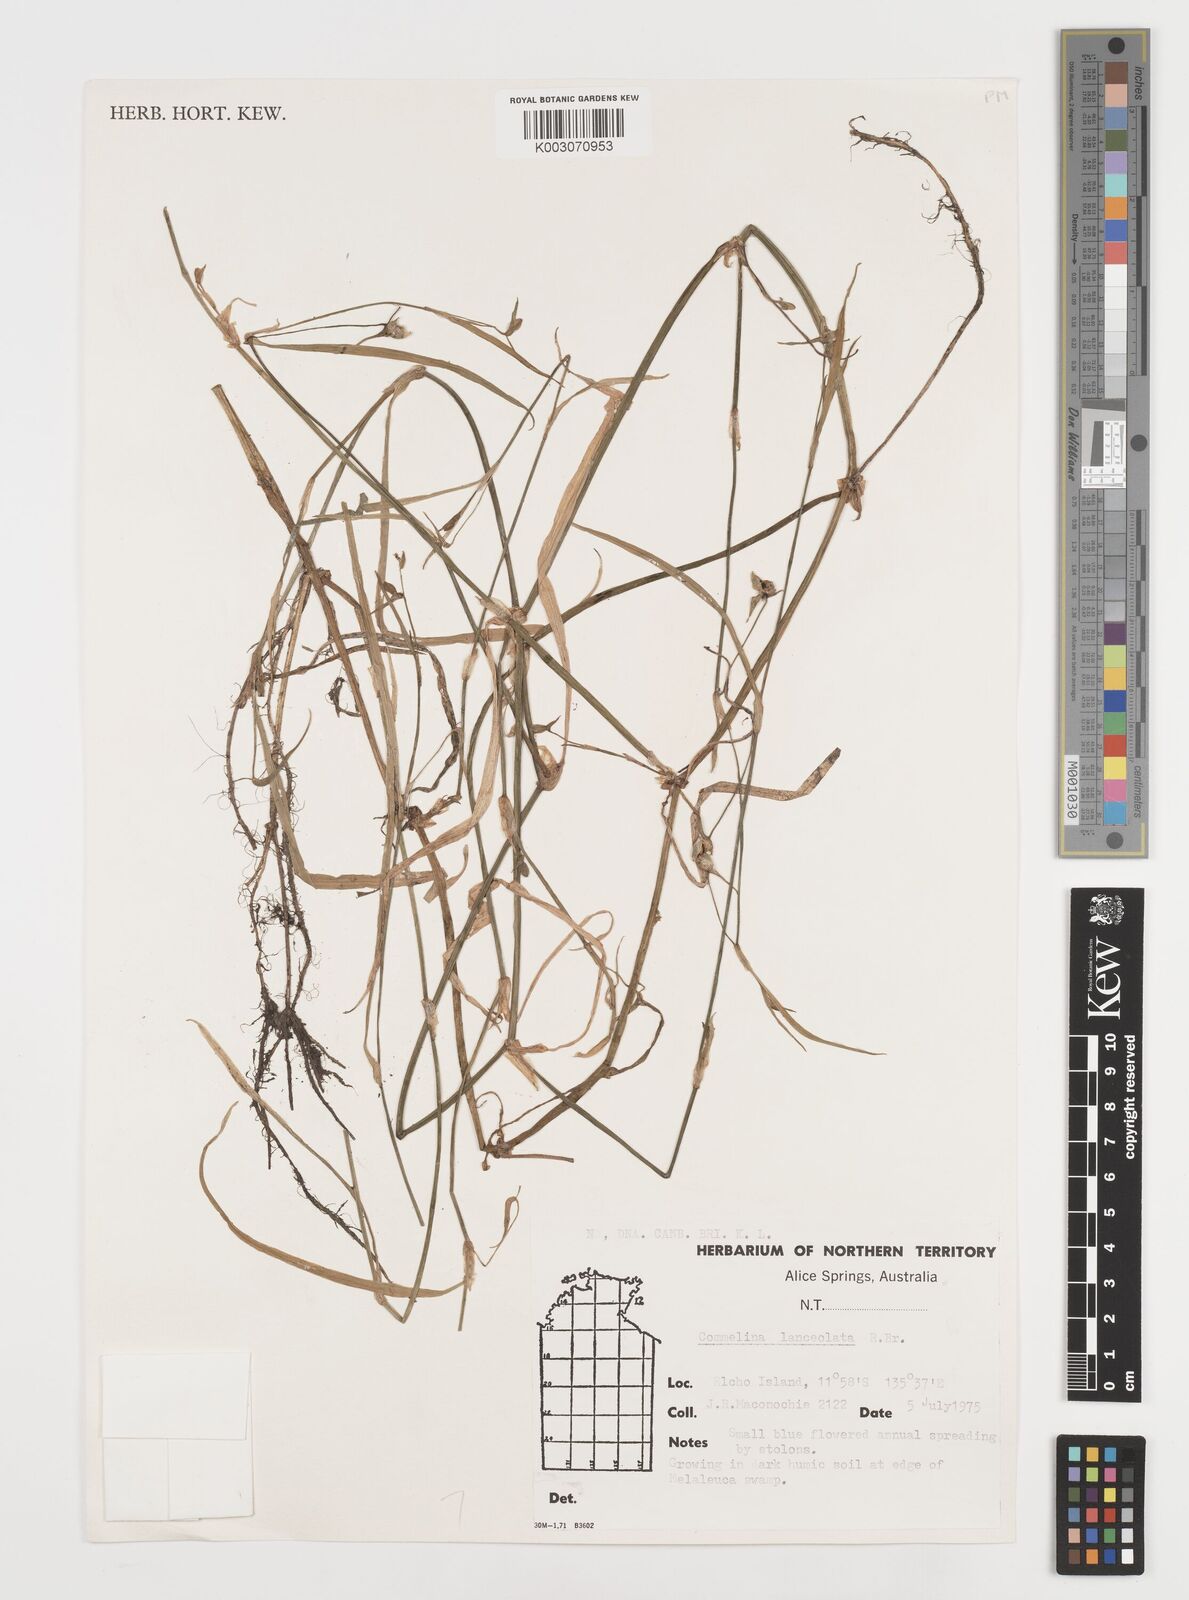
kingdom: Plantae
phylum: Tracheophyta
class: Liliopsida
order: Commelinales
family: Commelinaceae
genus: Commelina
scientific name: Commelina lanceolata
